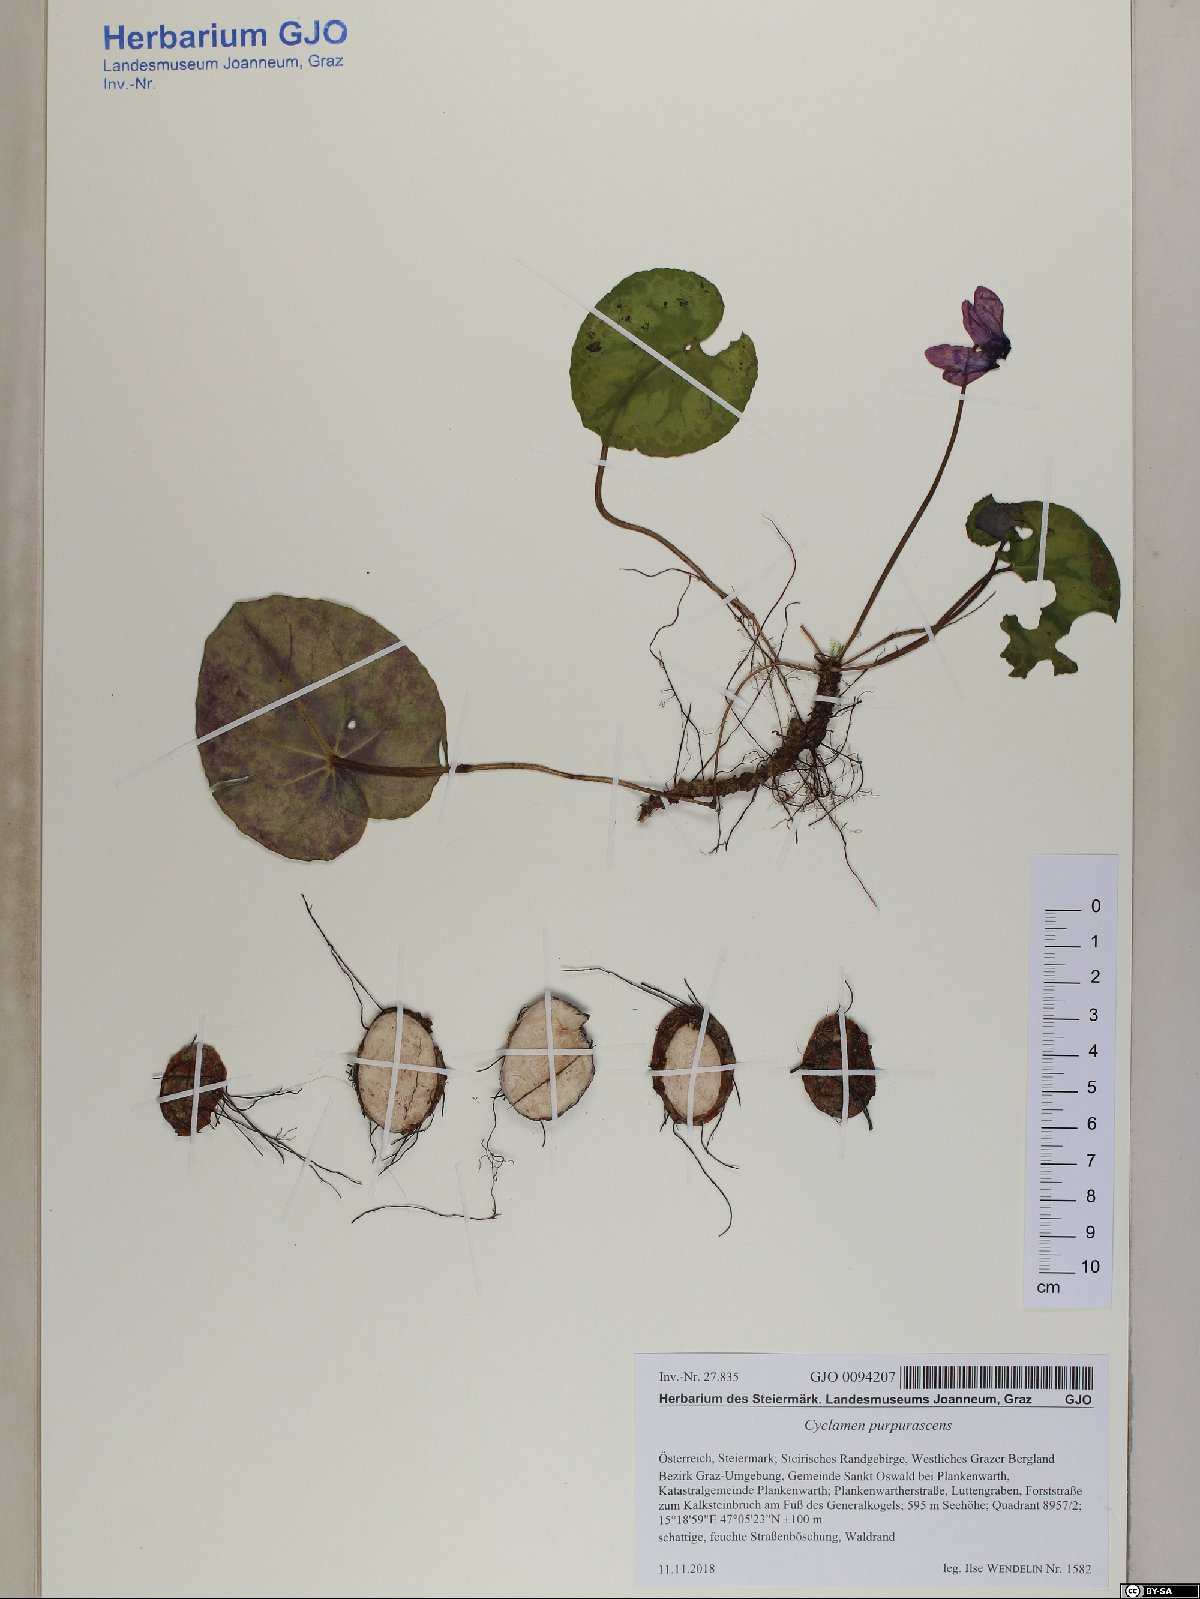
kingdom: Plantae
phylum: Tracheophyta
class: Magnoliopsida
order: Ericales
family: Primulaceae
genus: Cyclamen
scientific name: Cyclamen purpurascens
